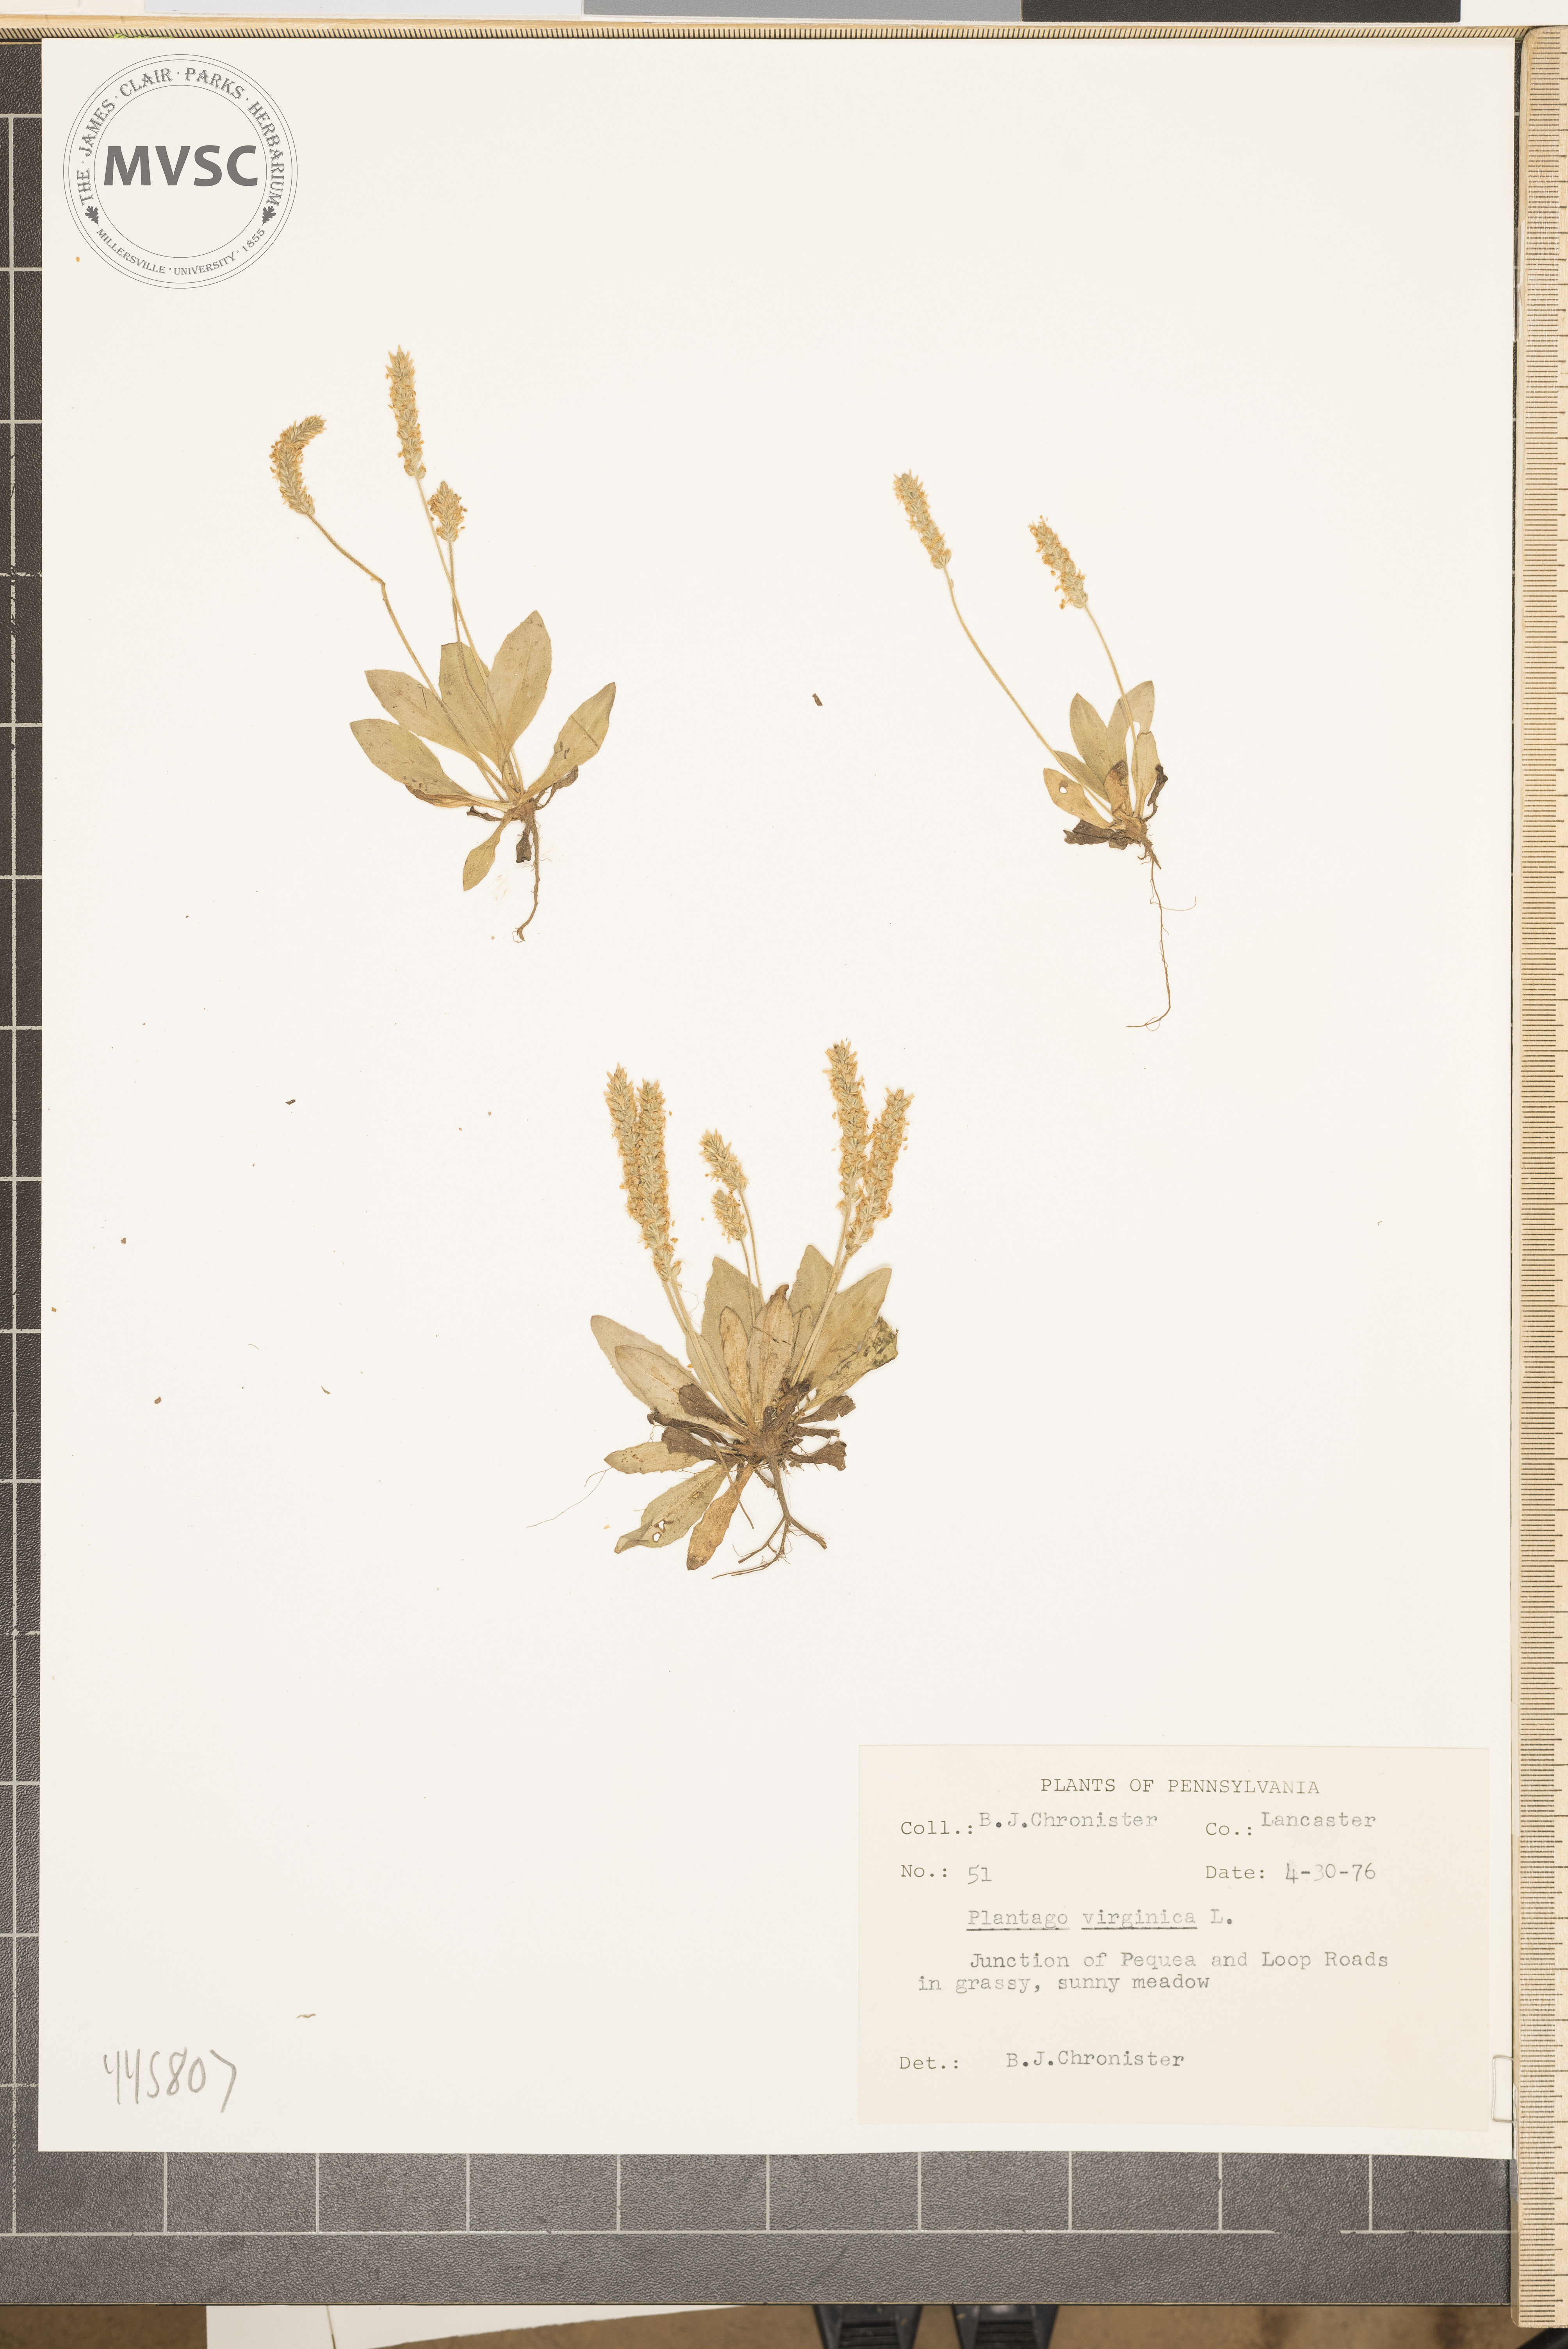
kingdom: Plantae
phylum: Tracheophyta
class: Magnoliopsida
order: Lamiales
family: Plantaginaceae
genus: Plantago
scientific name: Plantago virginica
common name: Hoary plantain
